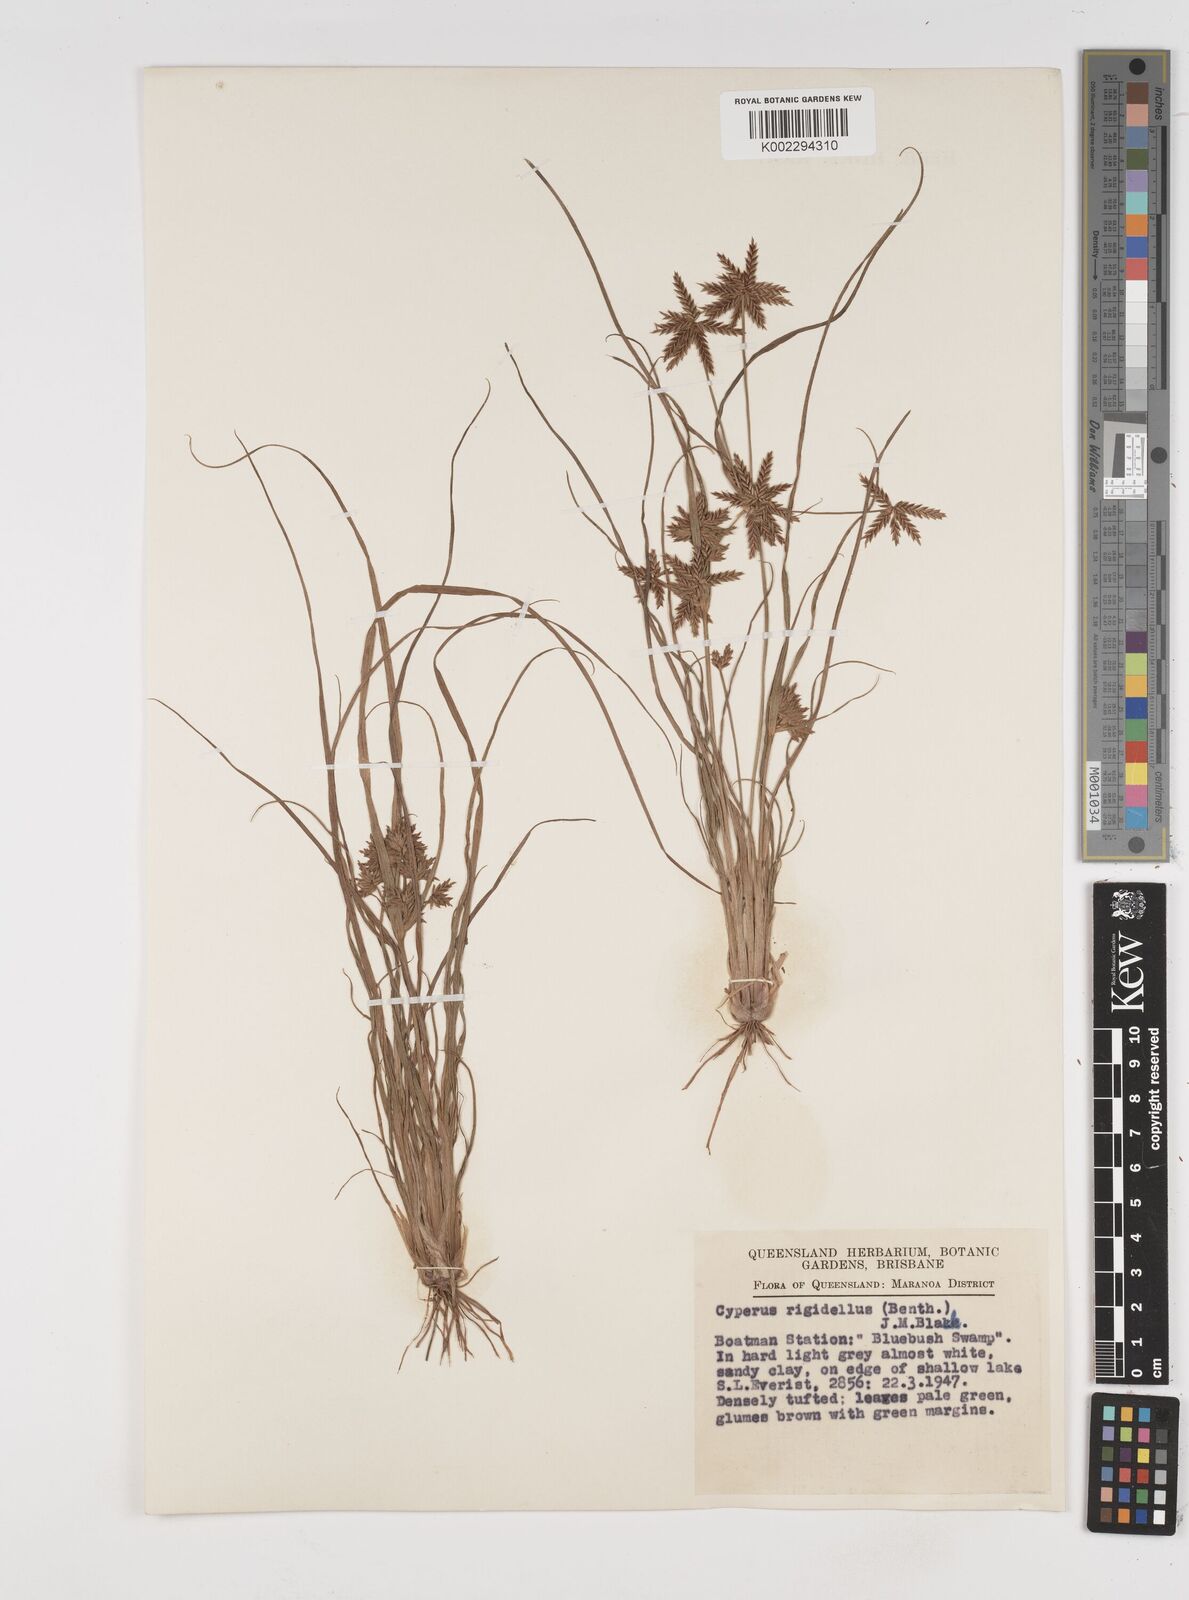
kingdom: Plantae
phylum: Tracheophyta
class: Liliopsida
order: Poales
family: Cyperaceae
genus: Cyperus
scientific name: Cyperus rigidellus
